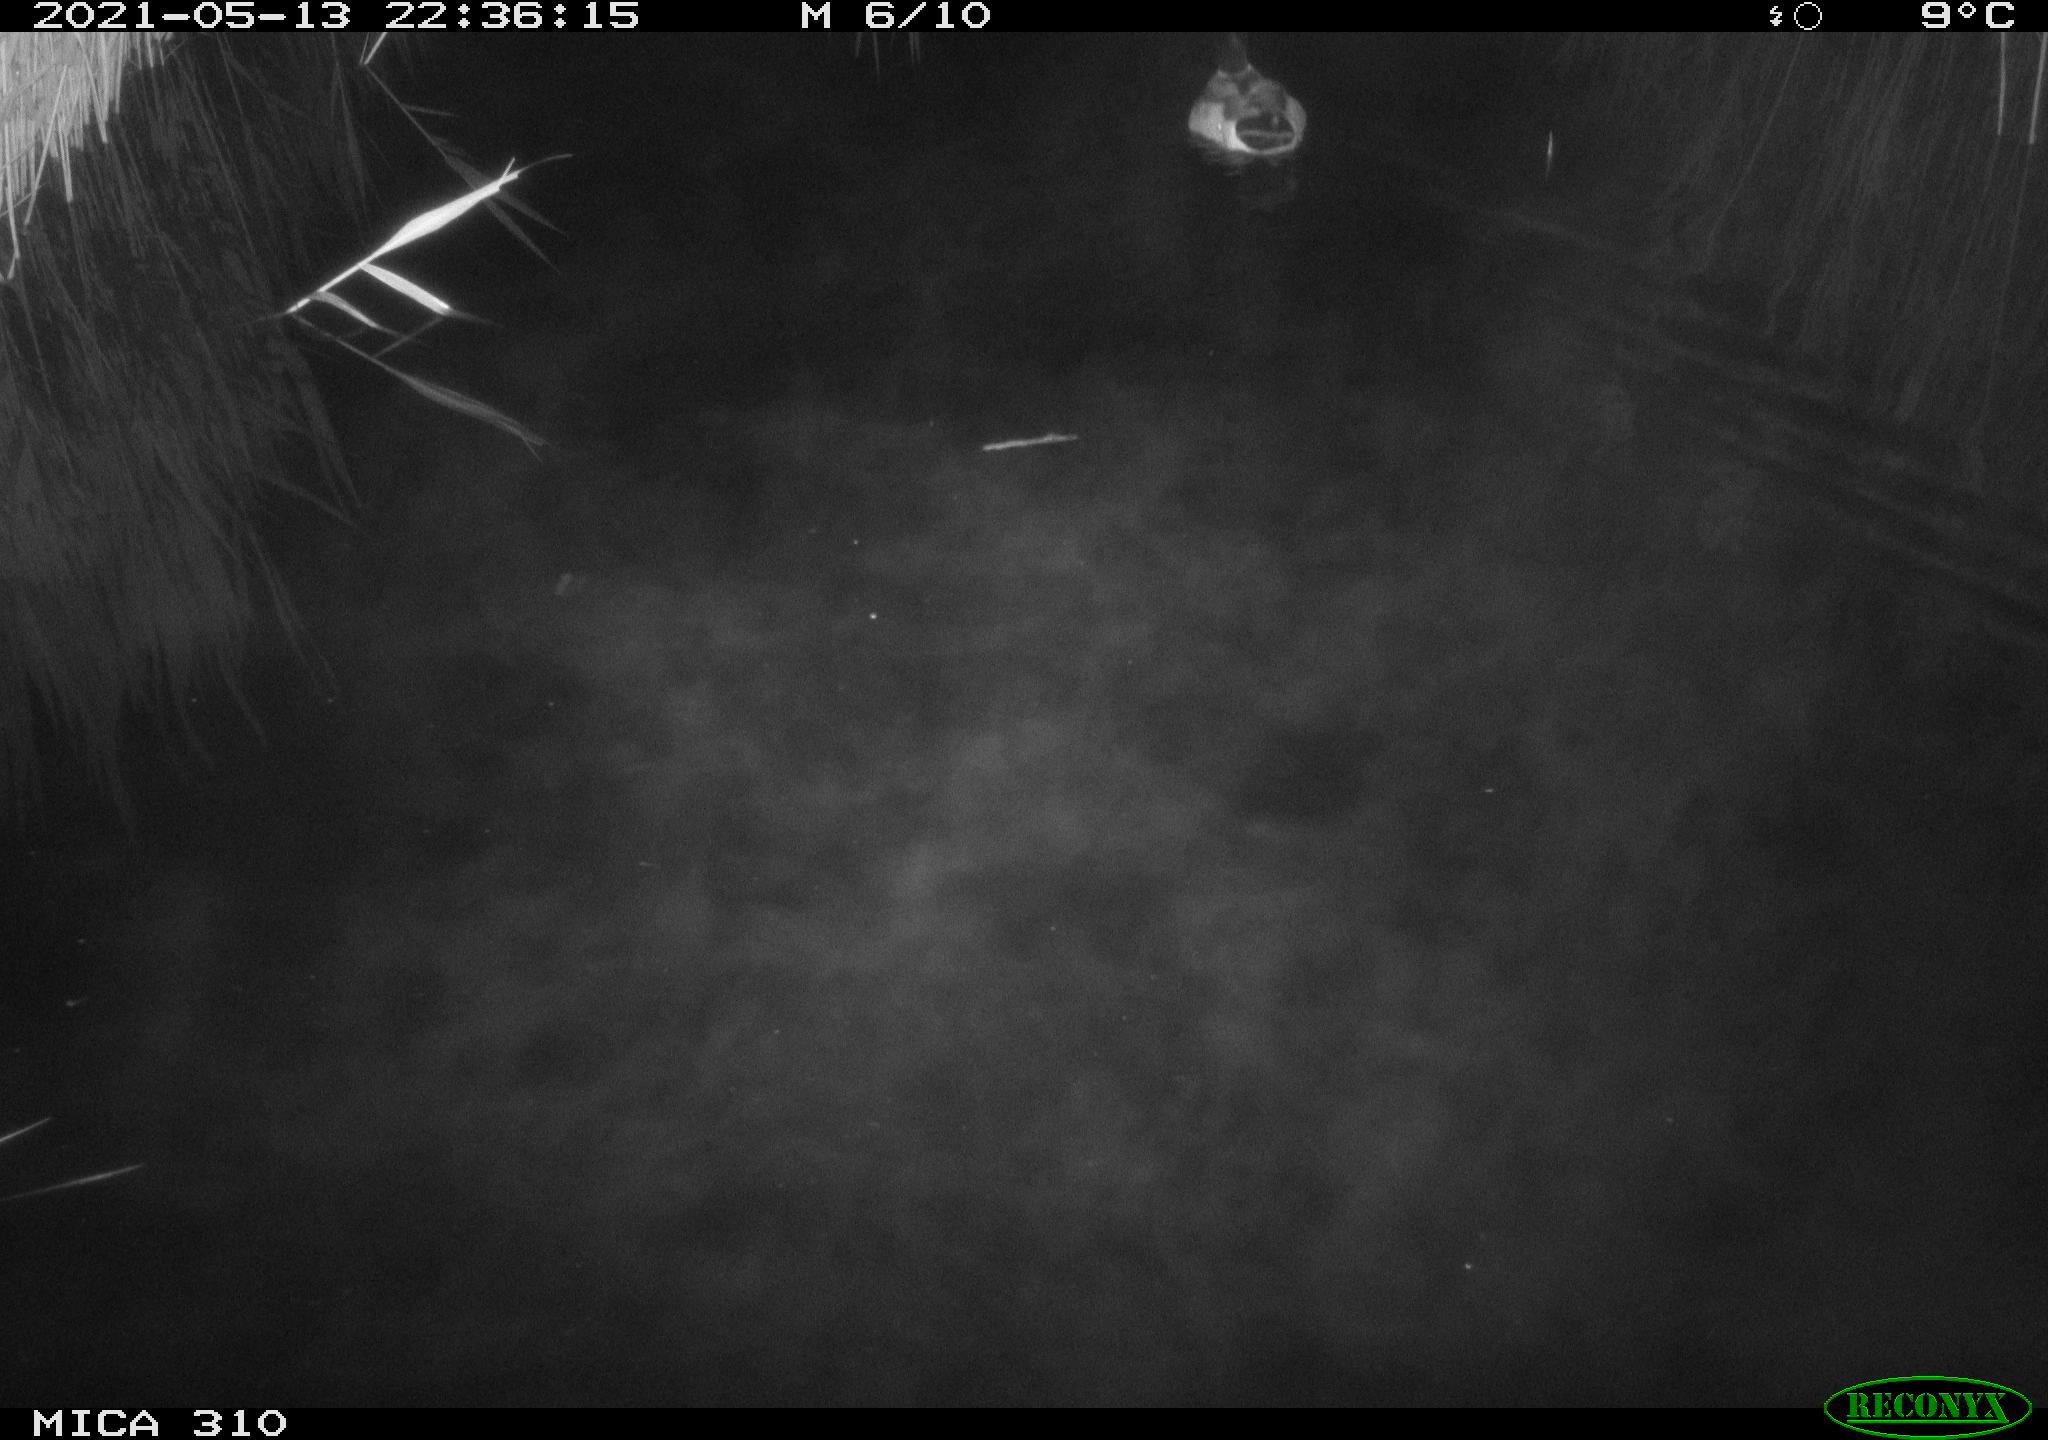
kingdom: Animalia
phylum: Chordata
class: Aves
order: Anseriformes
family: Anatidae
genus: Anas
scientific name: Anas platyrhynchos
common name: Mallard
